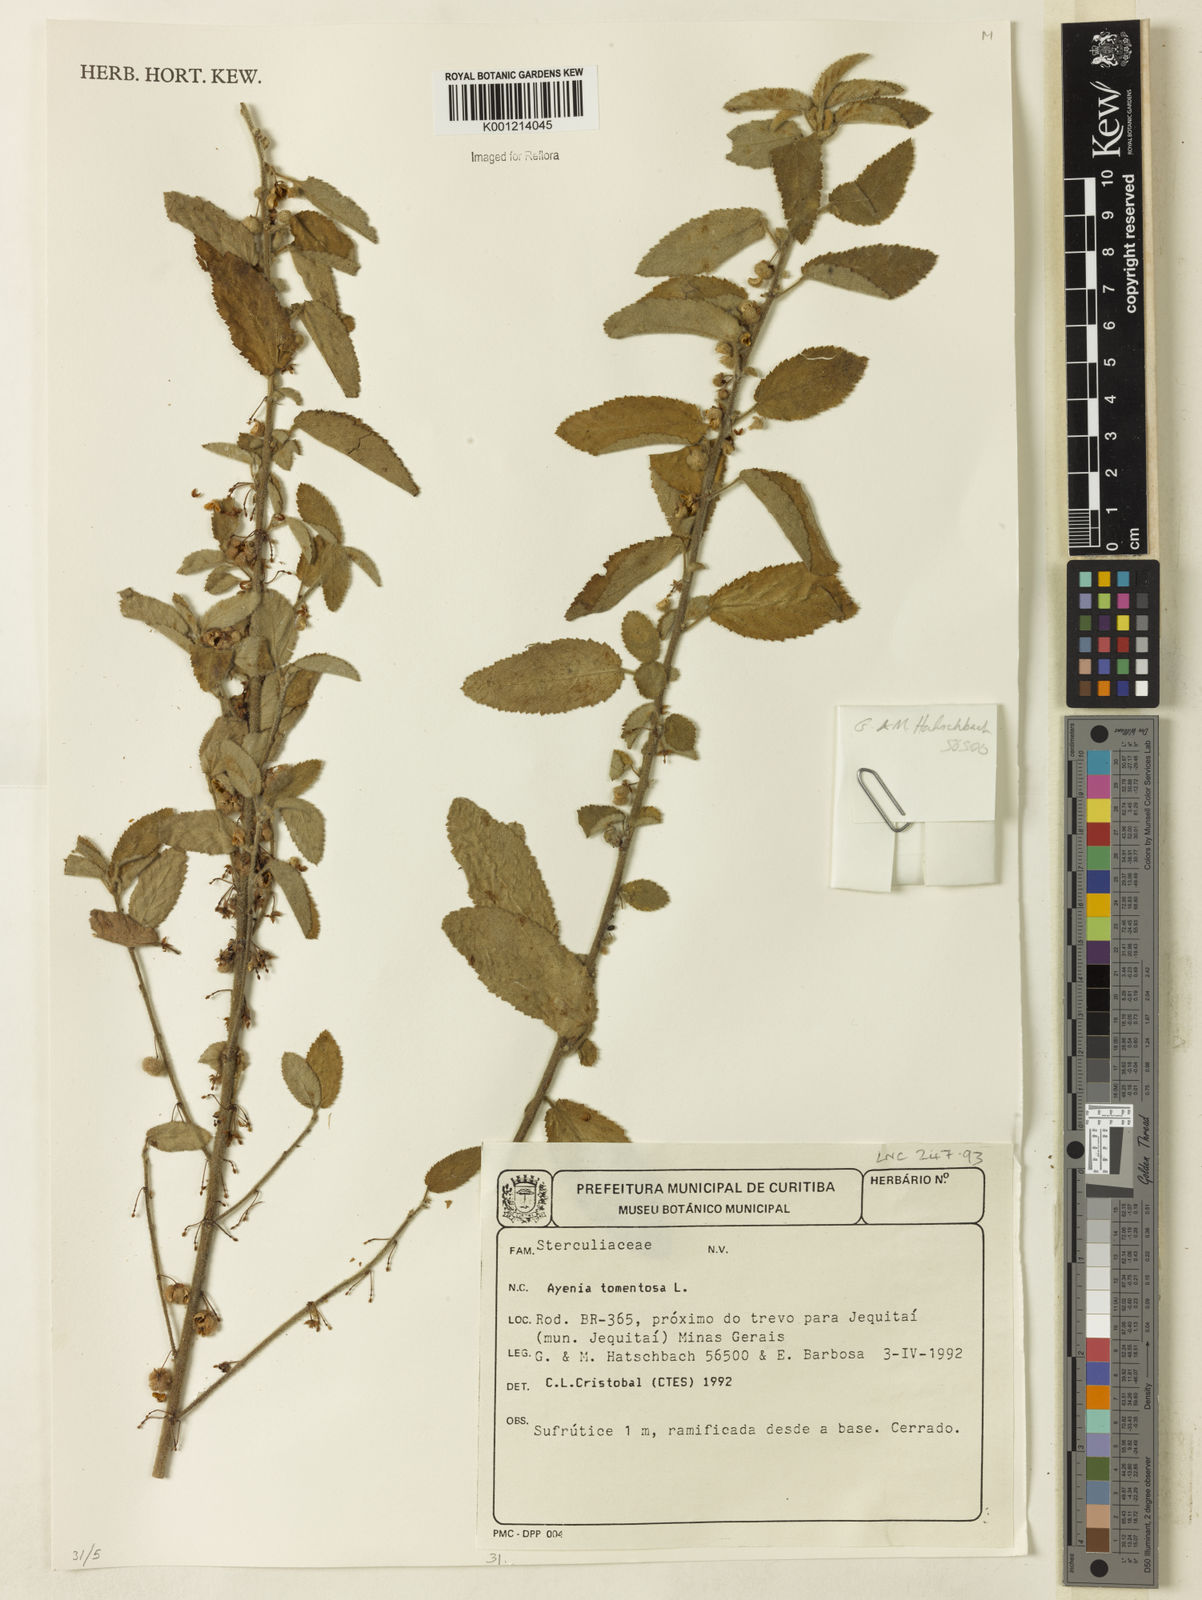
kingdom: Plantae
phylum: Tracheophyta
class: Magnoliopsida
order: Malvales
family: Malvaceae
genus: Ayenia
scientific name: Ayenia tomentosa
